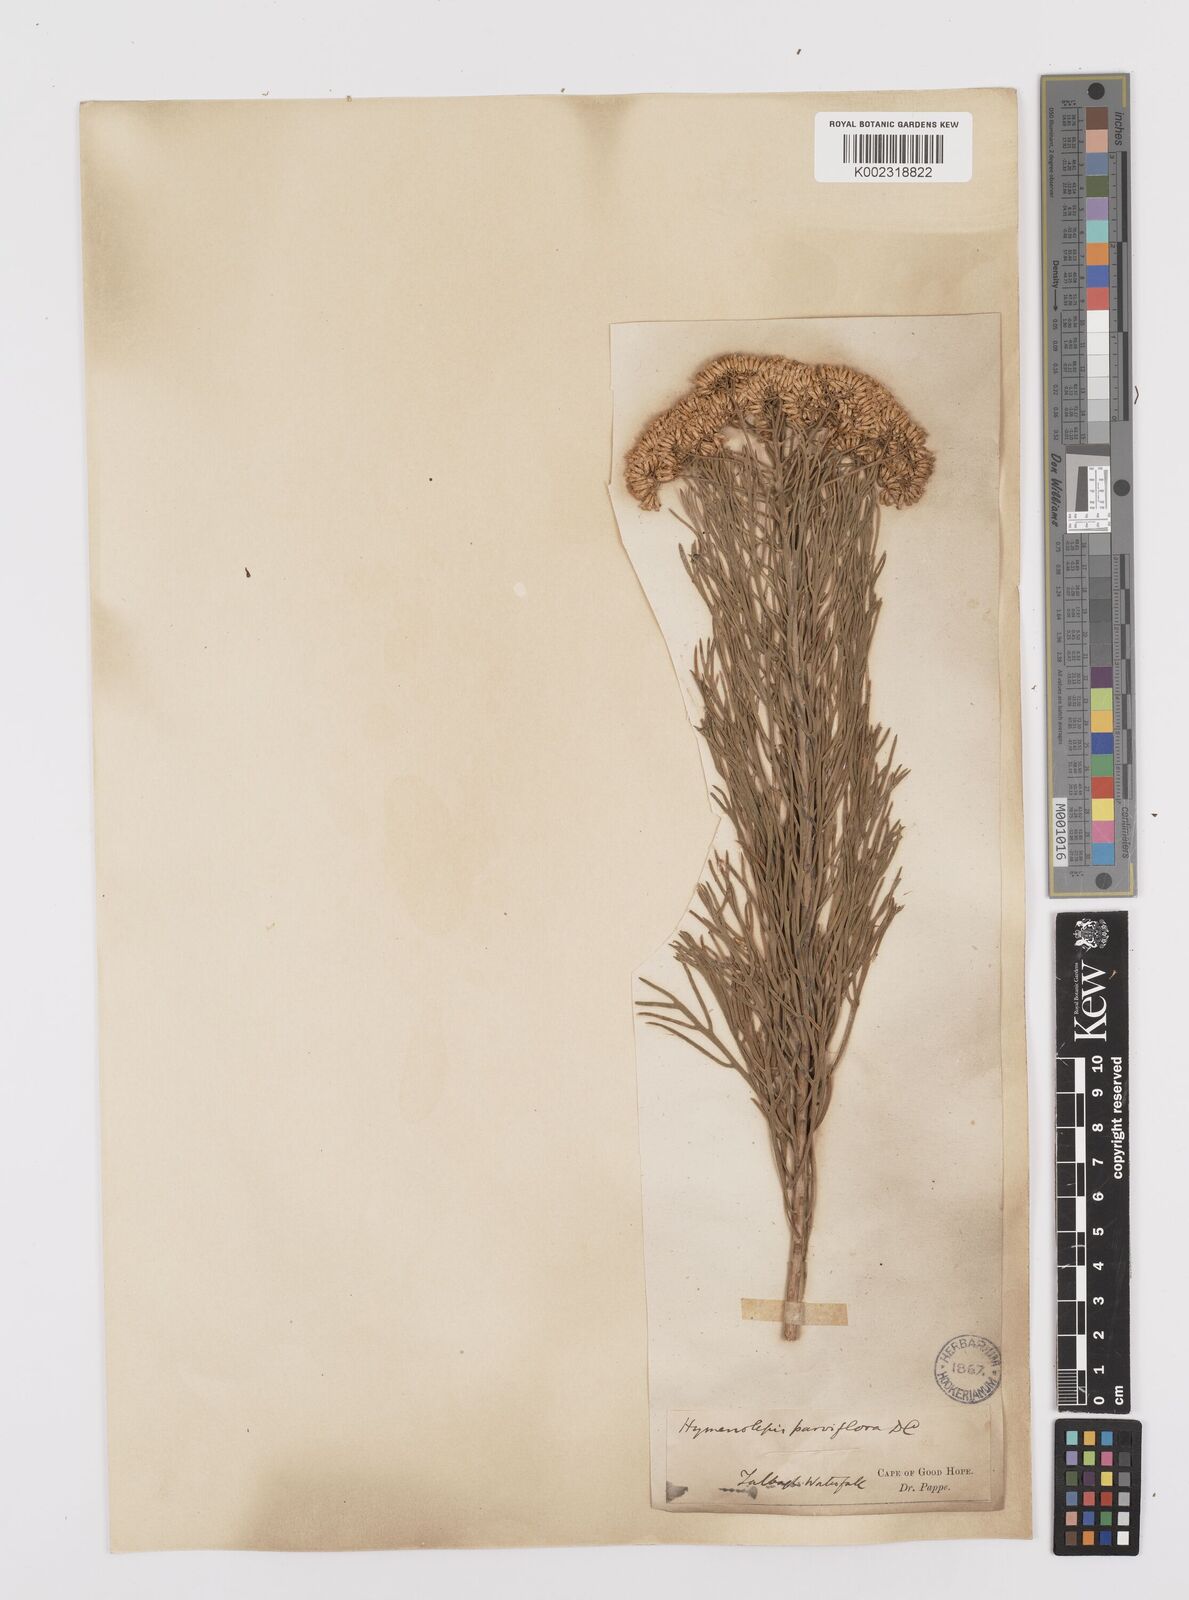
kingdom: Plantae
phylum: Tracheophyta
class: Magnoliopsida
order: Asterales
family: Asteraceae
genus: Hymenolepis
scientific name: Hymenolepis crithmifolia
